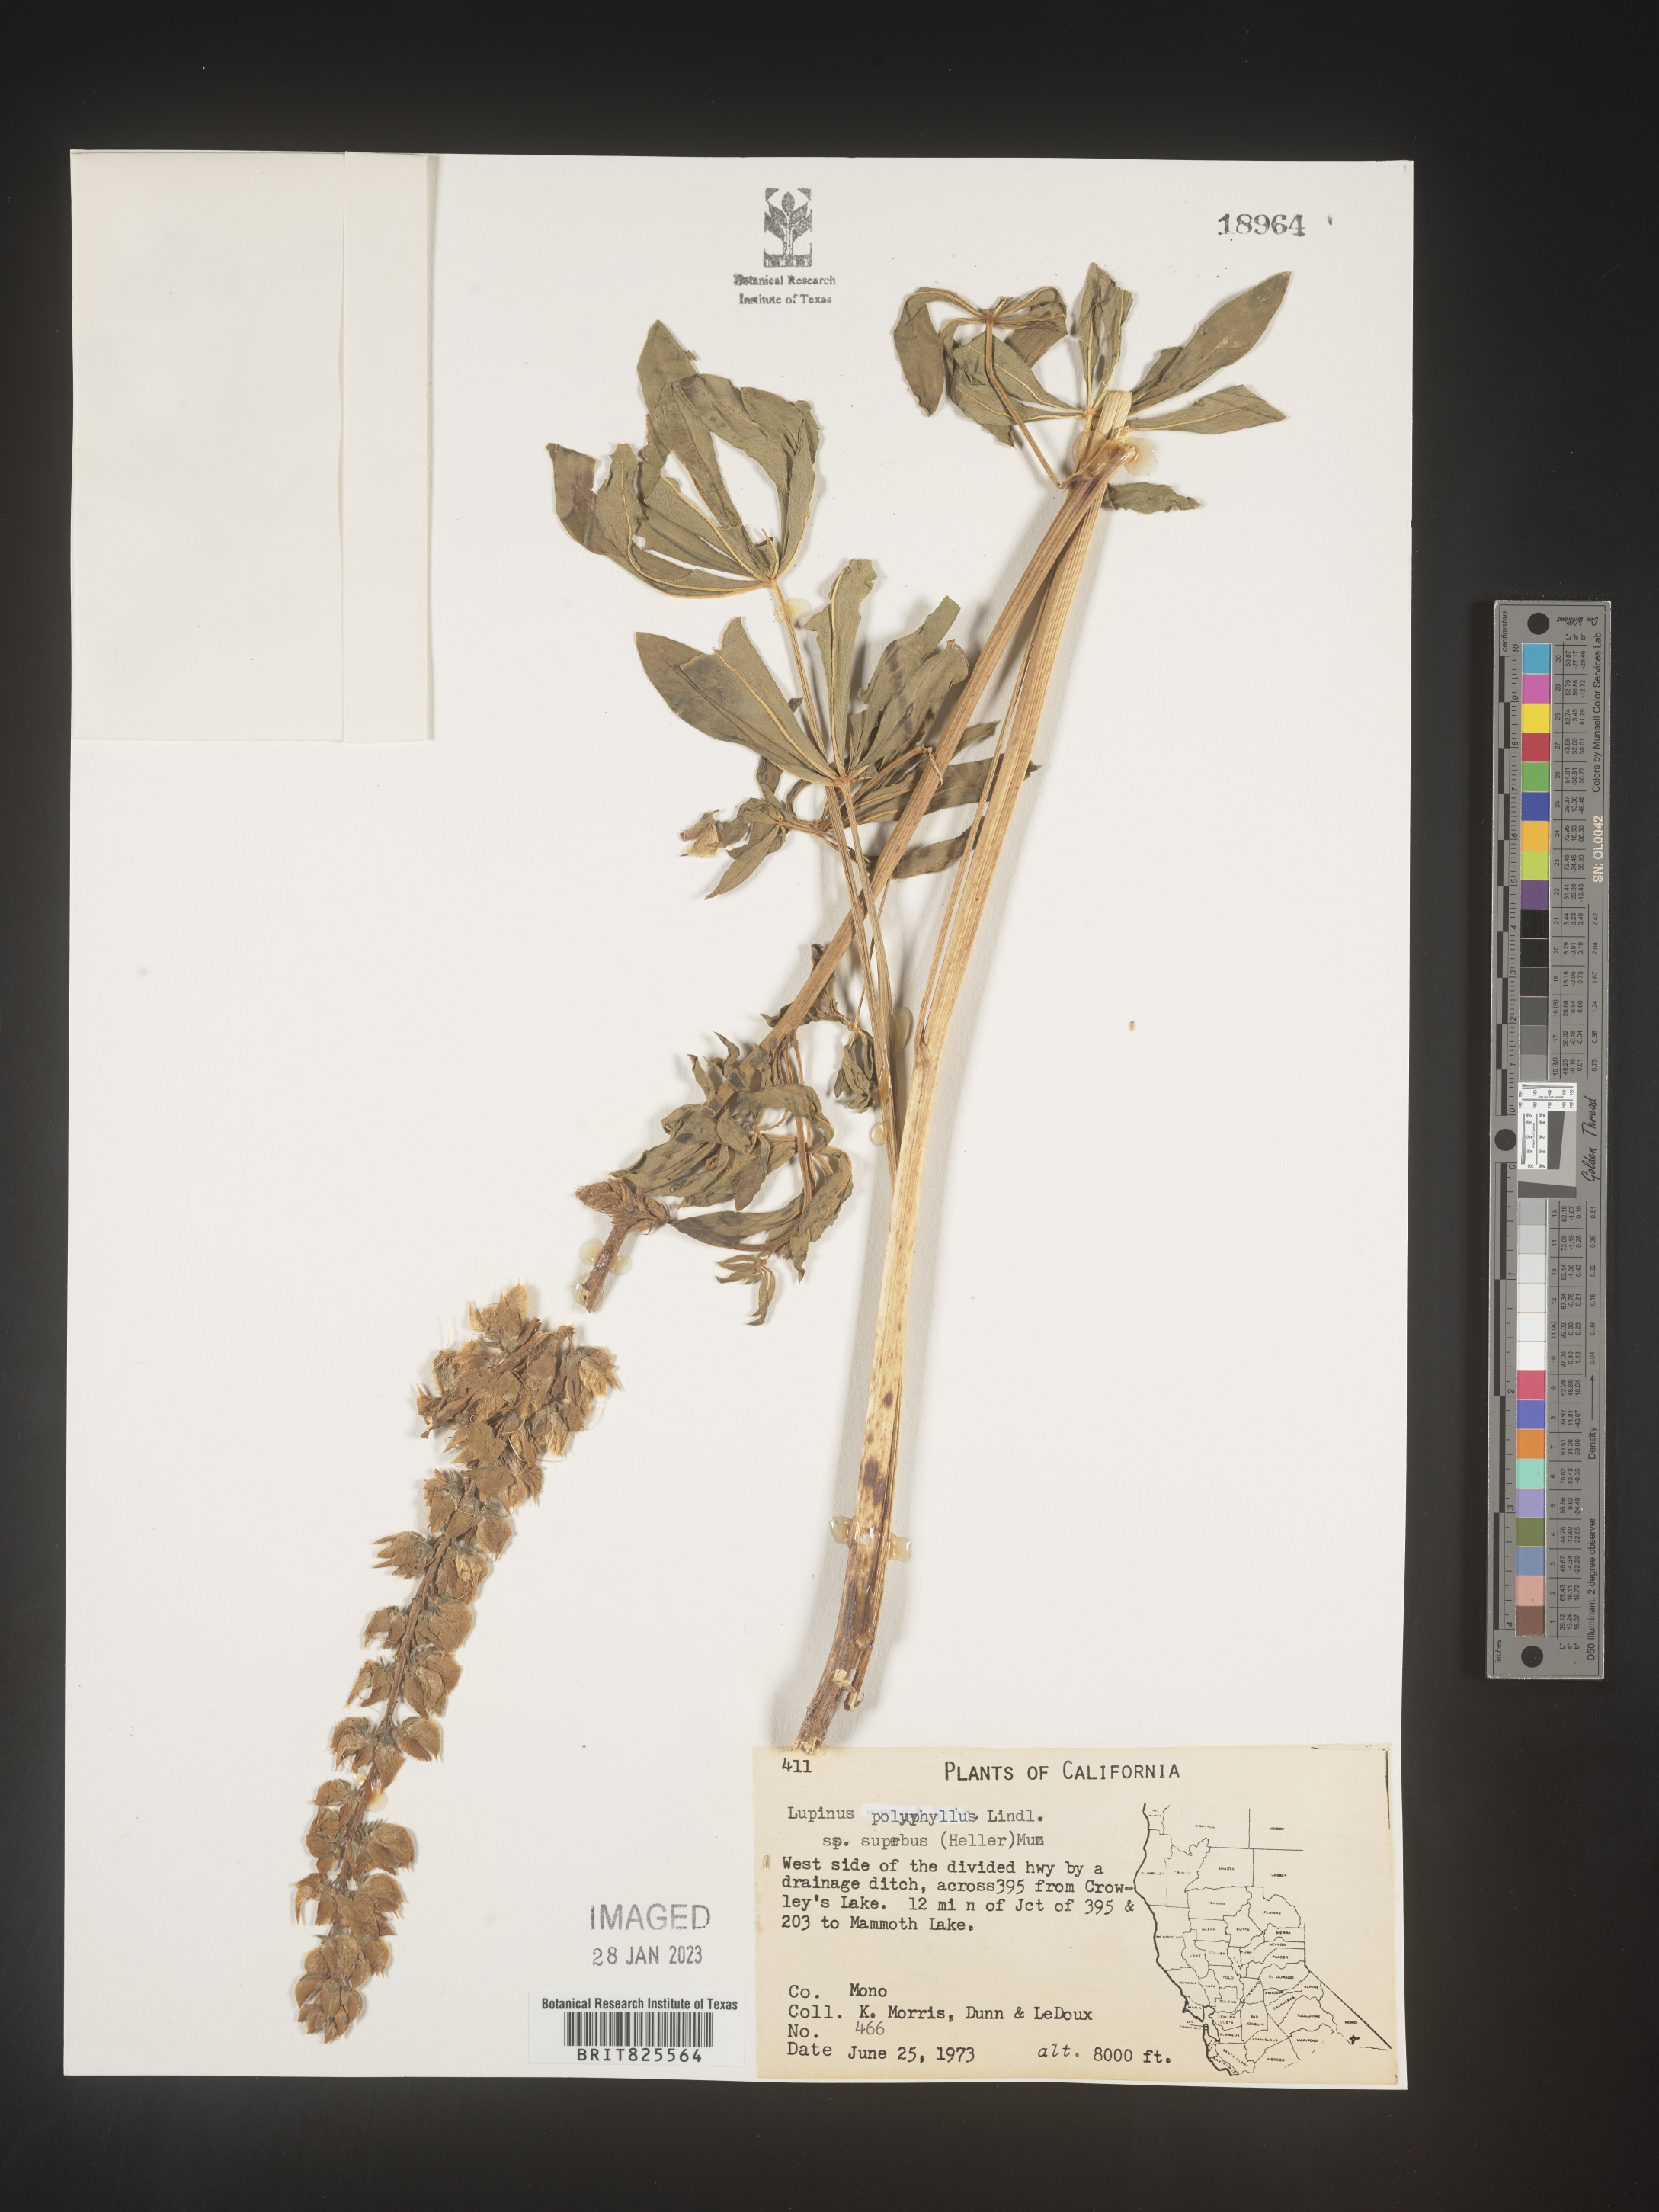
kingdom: Plantae
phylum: Tracheophyta
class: Magnoliopsida
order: Fabales
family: Fabaceae
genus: Lupinus
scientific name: Lupinus
